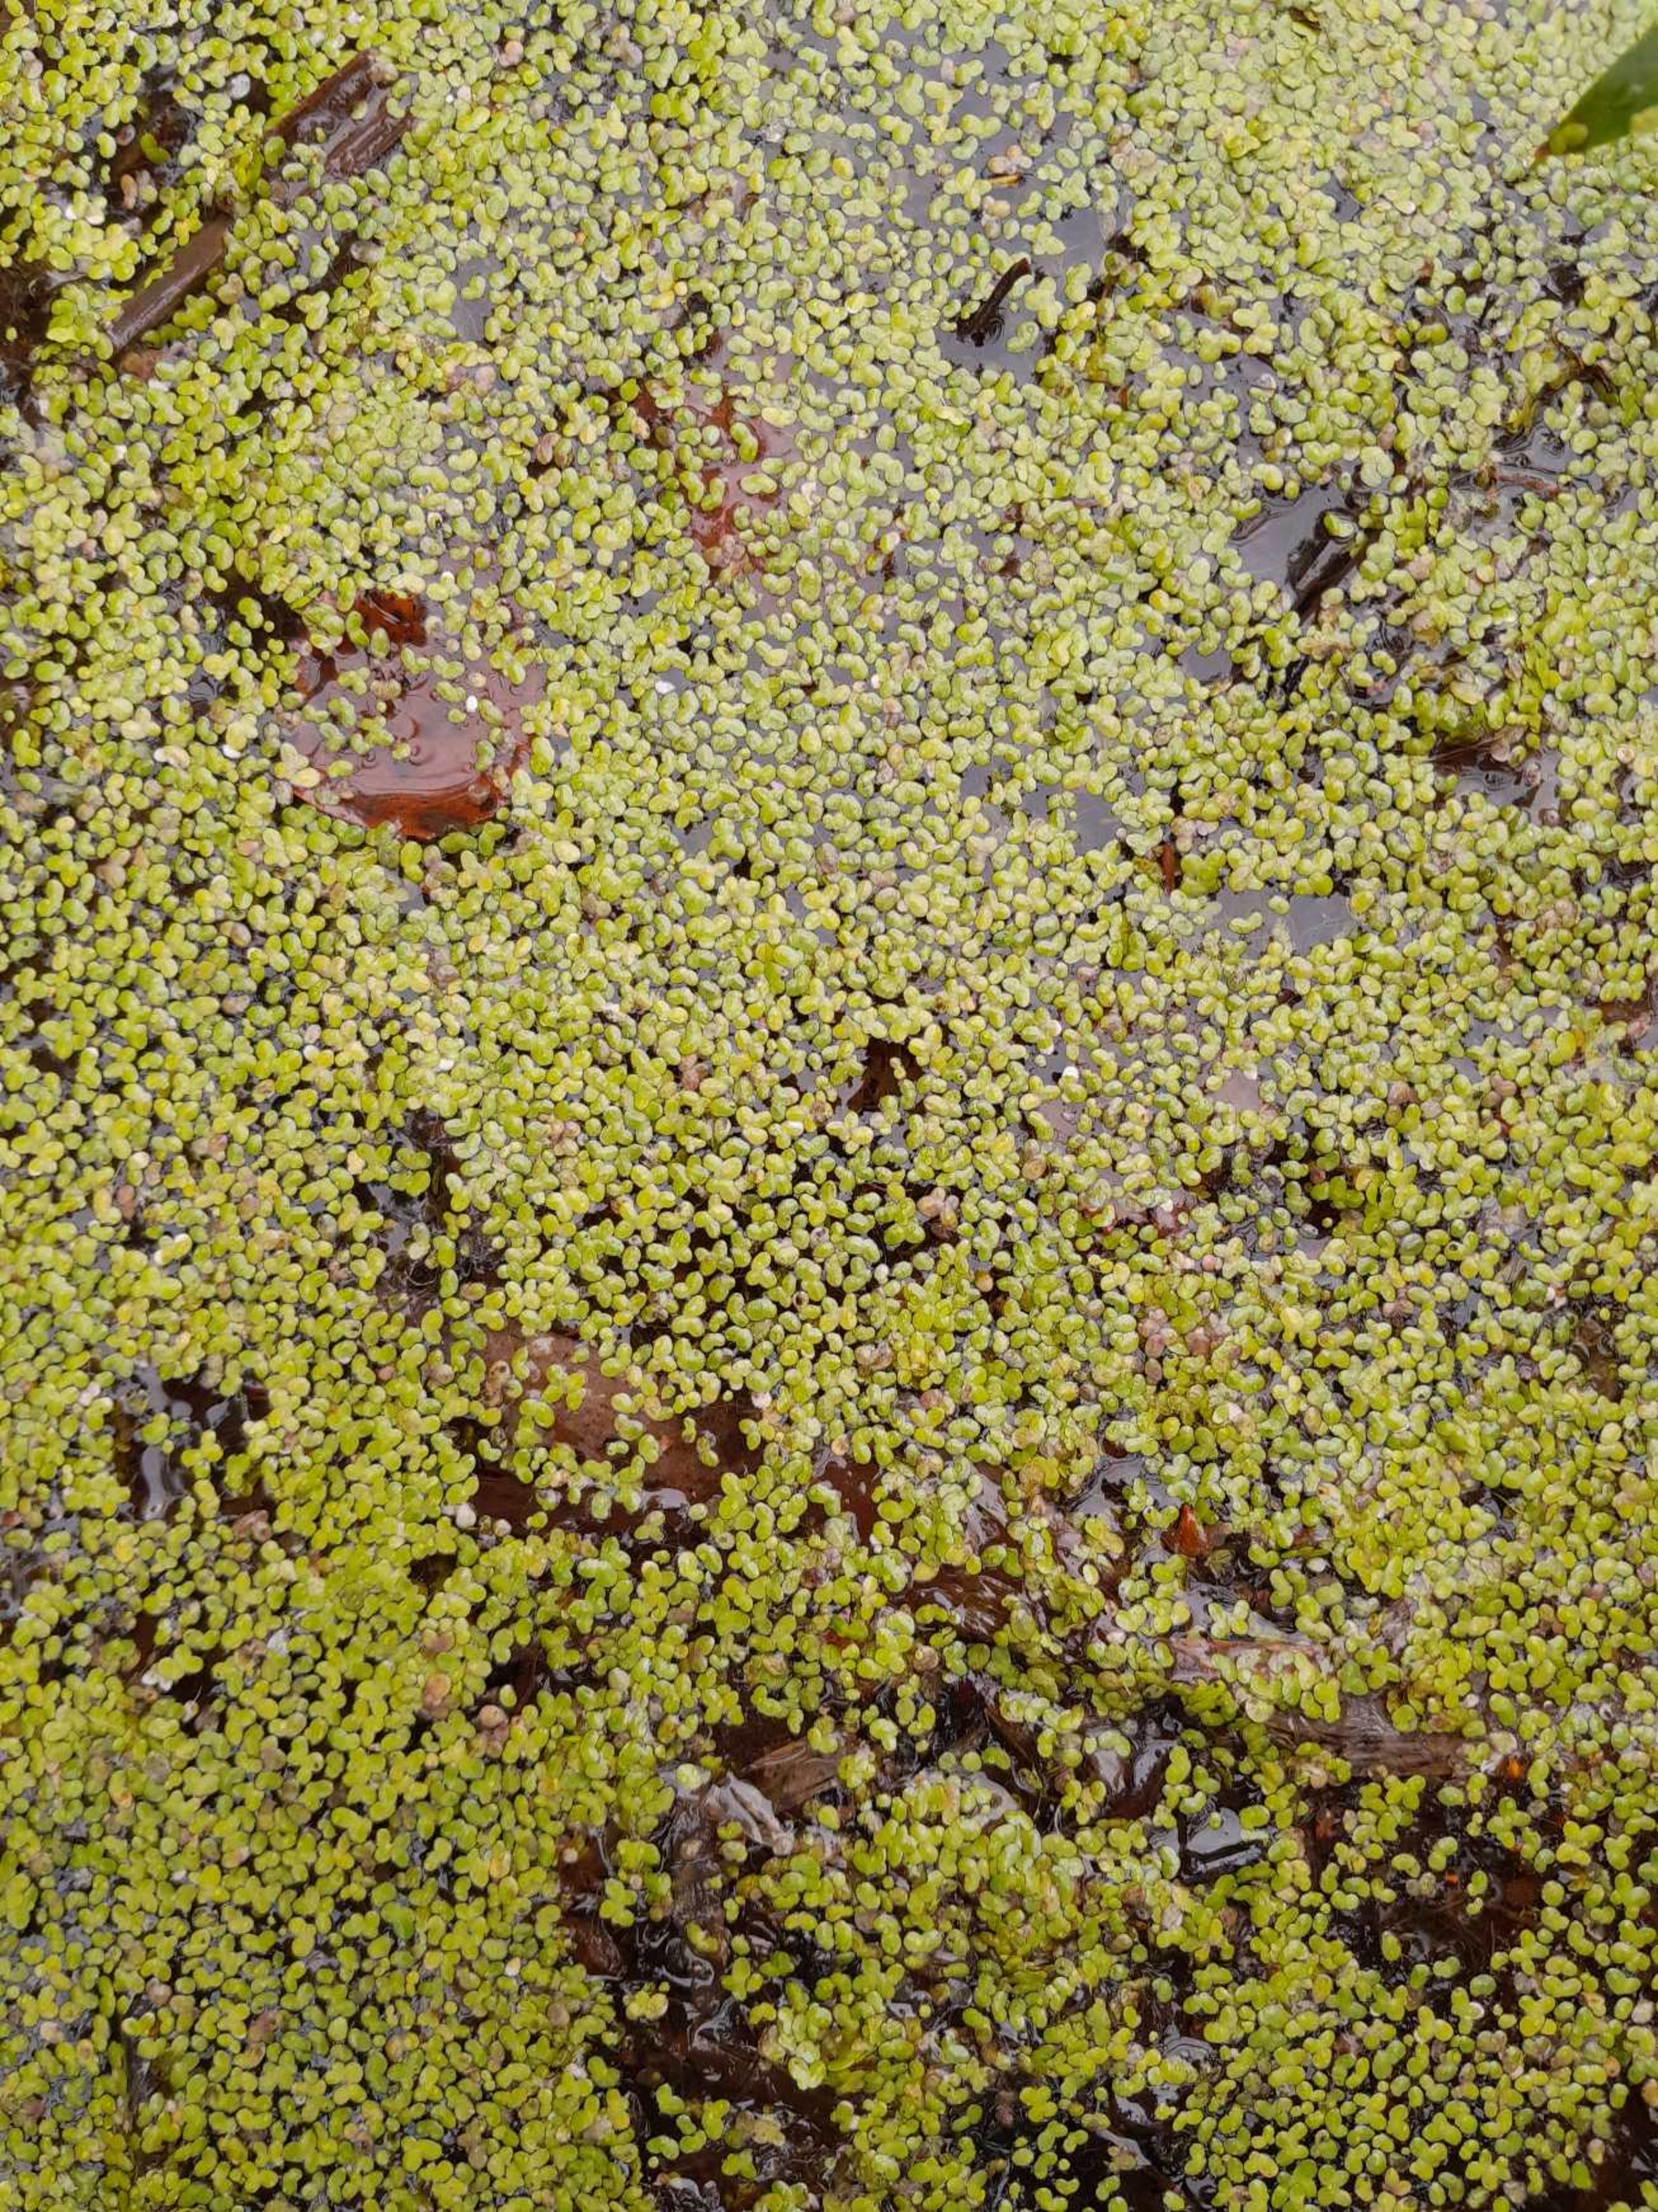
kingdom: Plantae
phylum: Tracheophyta
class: Liliopsida
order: Alismatales
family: Araceae
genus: Lemna
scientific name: Lemna minor
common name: Liden andemad
